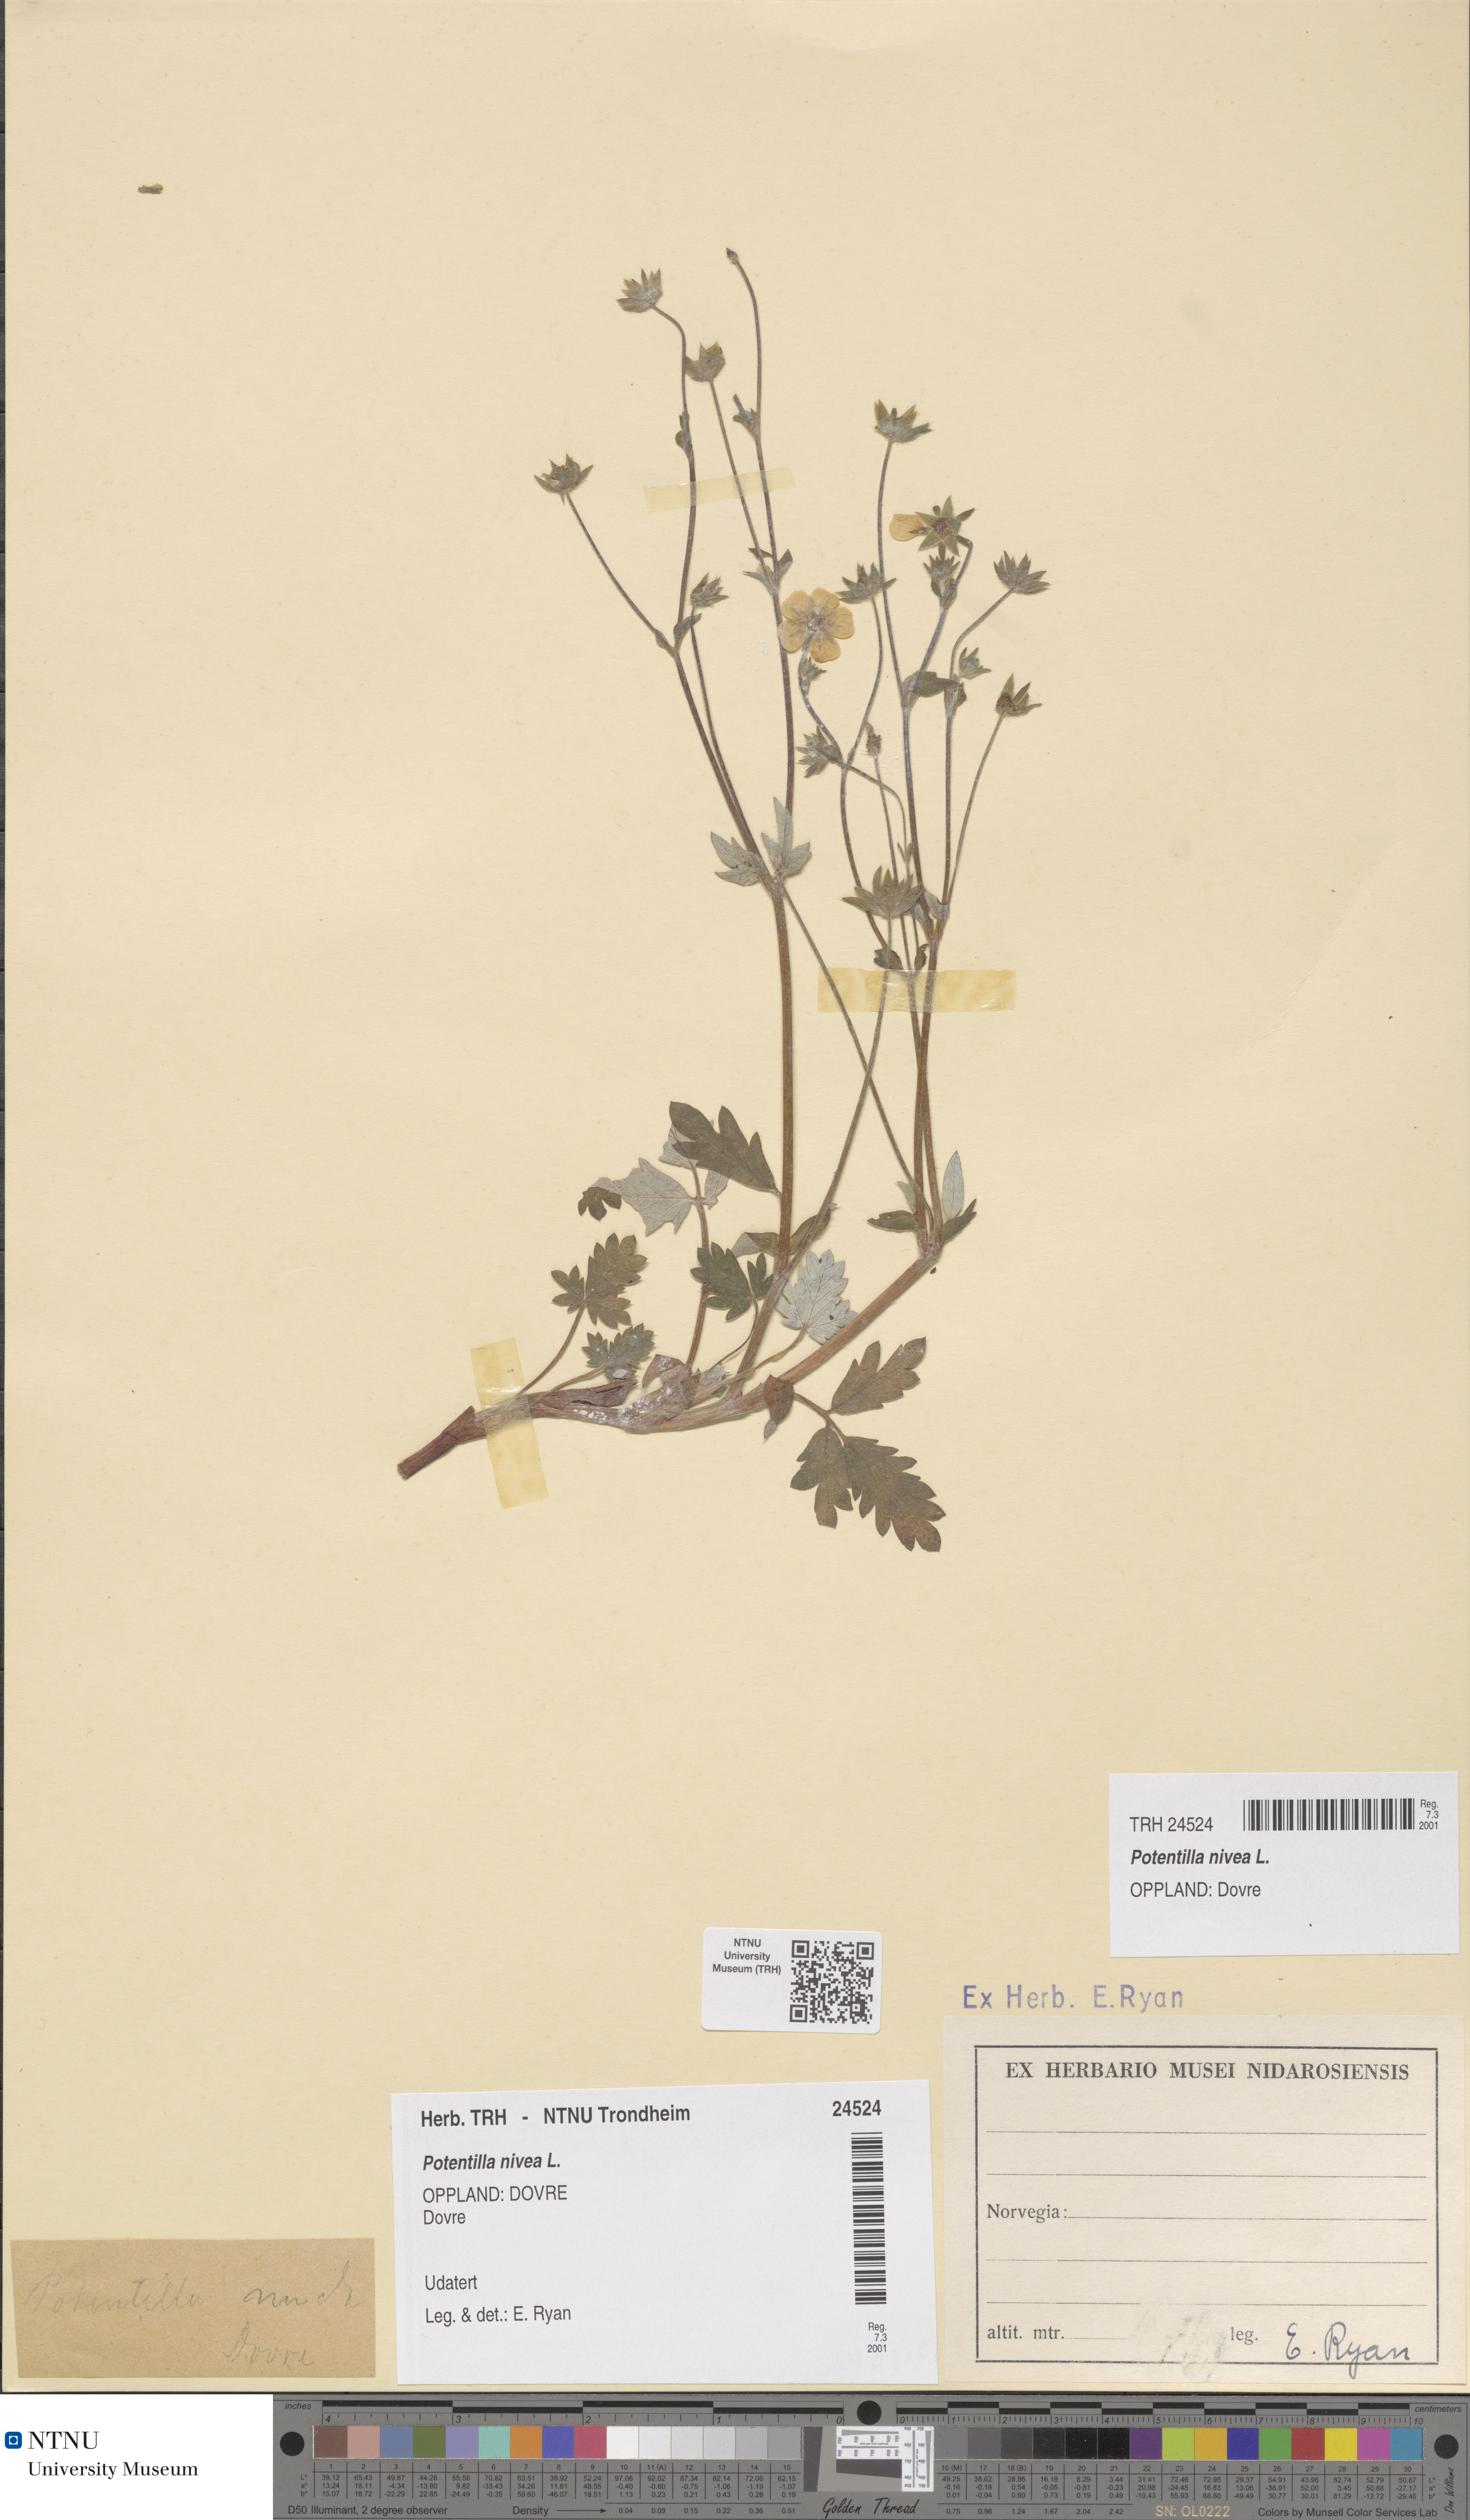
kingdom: Plantae
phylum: Tracheophyta
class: Magnoliopsida
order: Rosales
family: Rosaceae
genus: Potentilla
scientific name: Potentilla nivea
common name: Snow cinquefoil
